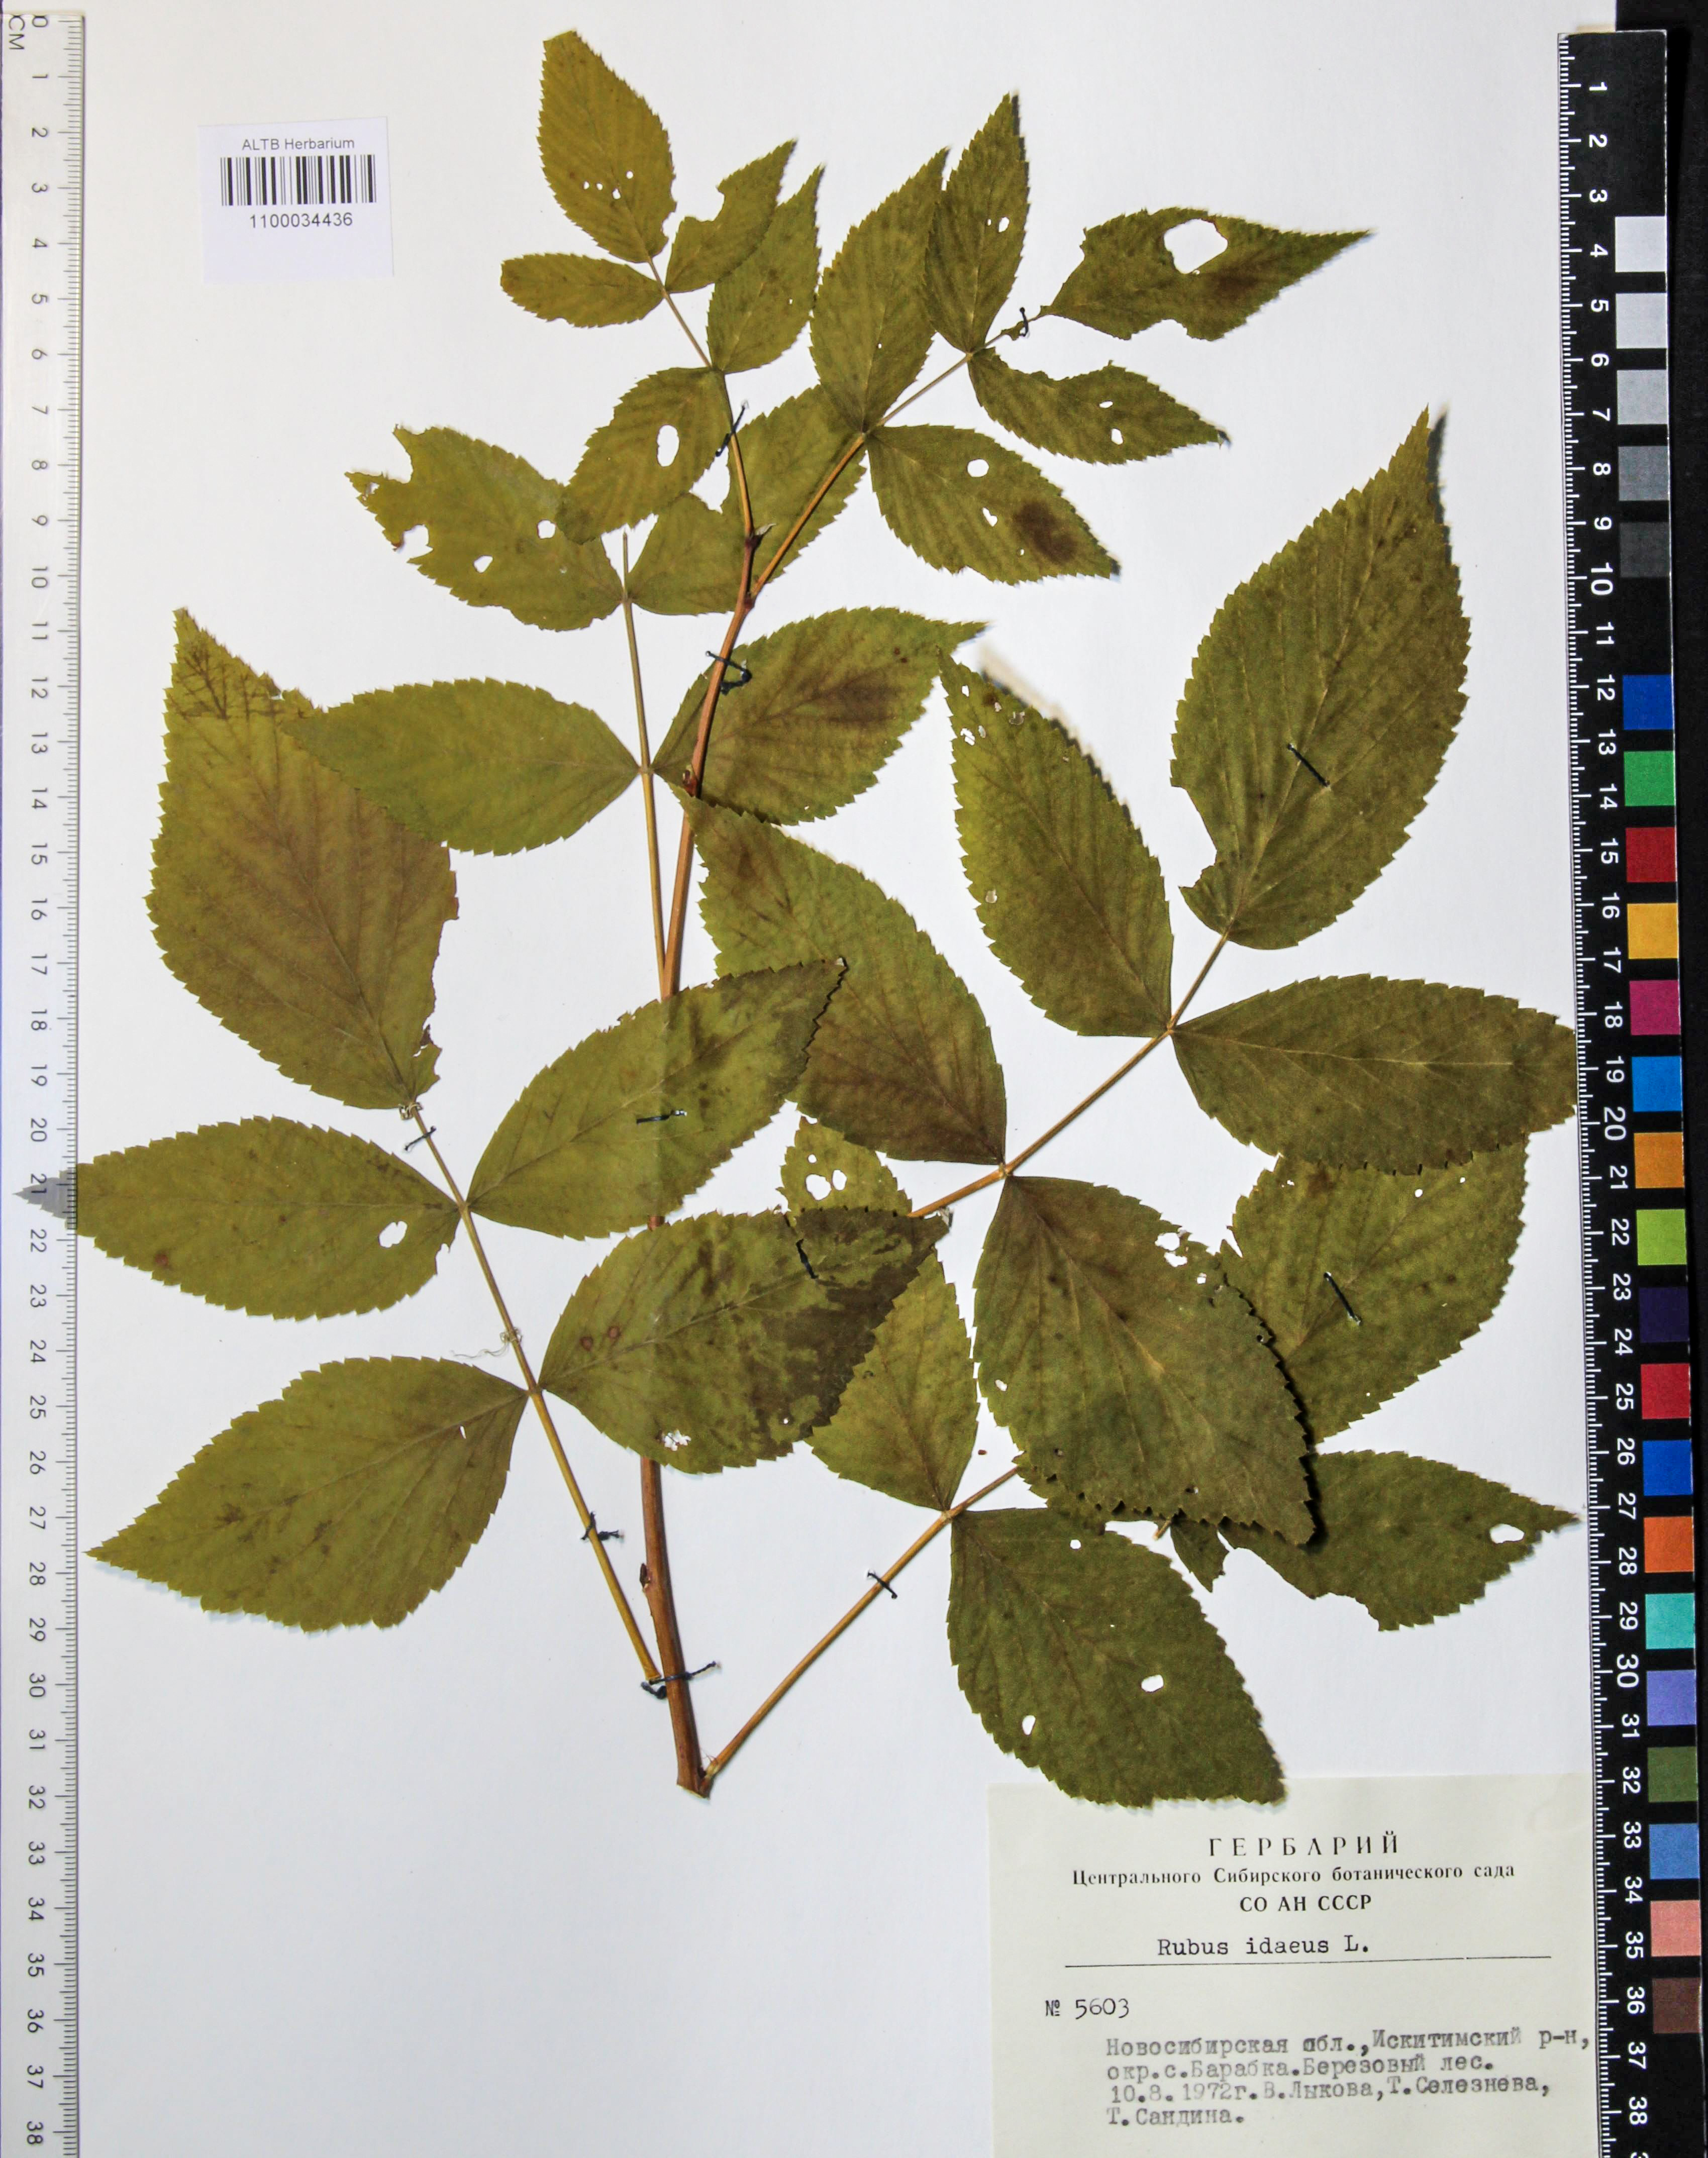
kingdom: Plantae
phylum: Tracheophyta
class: Magnoliopsida
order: Rosales
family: Rosaceae
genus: Rubus
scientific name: Rubus idaeus
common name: Raspberry
